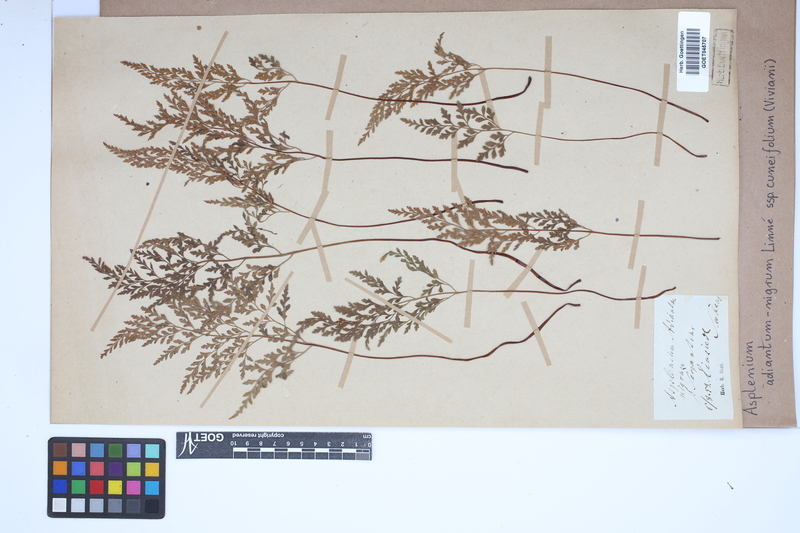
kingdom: Plantae
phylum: Tracheophyta
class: Polypodiopsida
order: Polypodiales
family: Aspleniaceae
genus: Asplenium
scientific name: Asplenium cuneifolium
